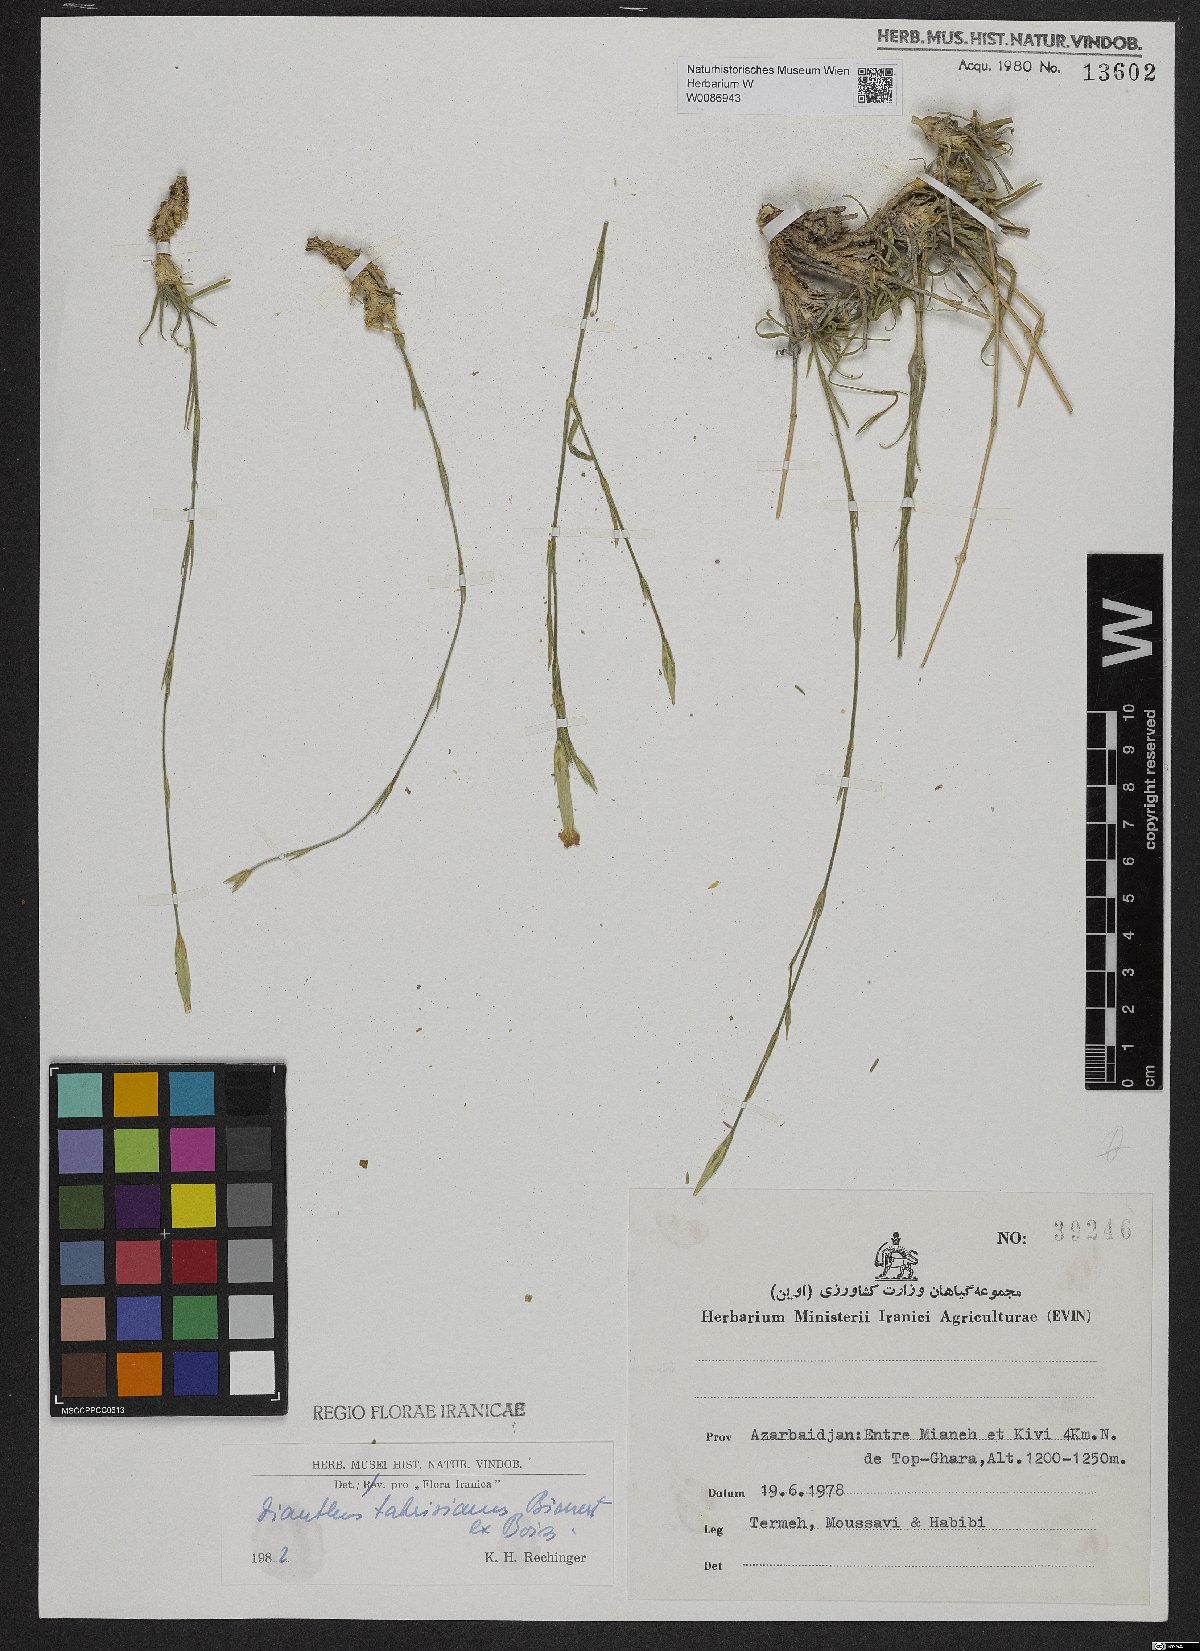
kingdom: Plantae
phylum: Tracheophyta
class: Magnoliopsida
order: Caryophyllales
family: Caryophyllaceae
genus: Dianthus
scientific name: Dianthus tabrisianus
